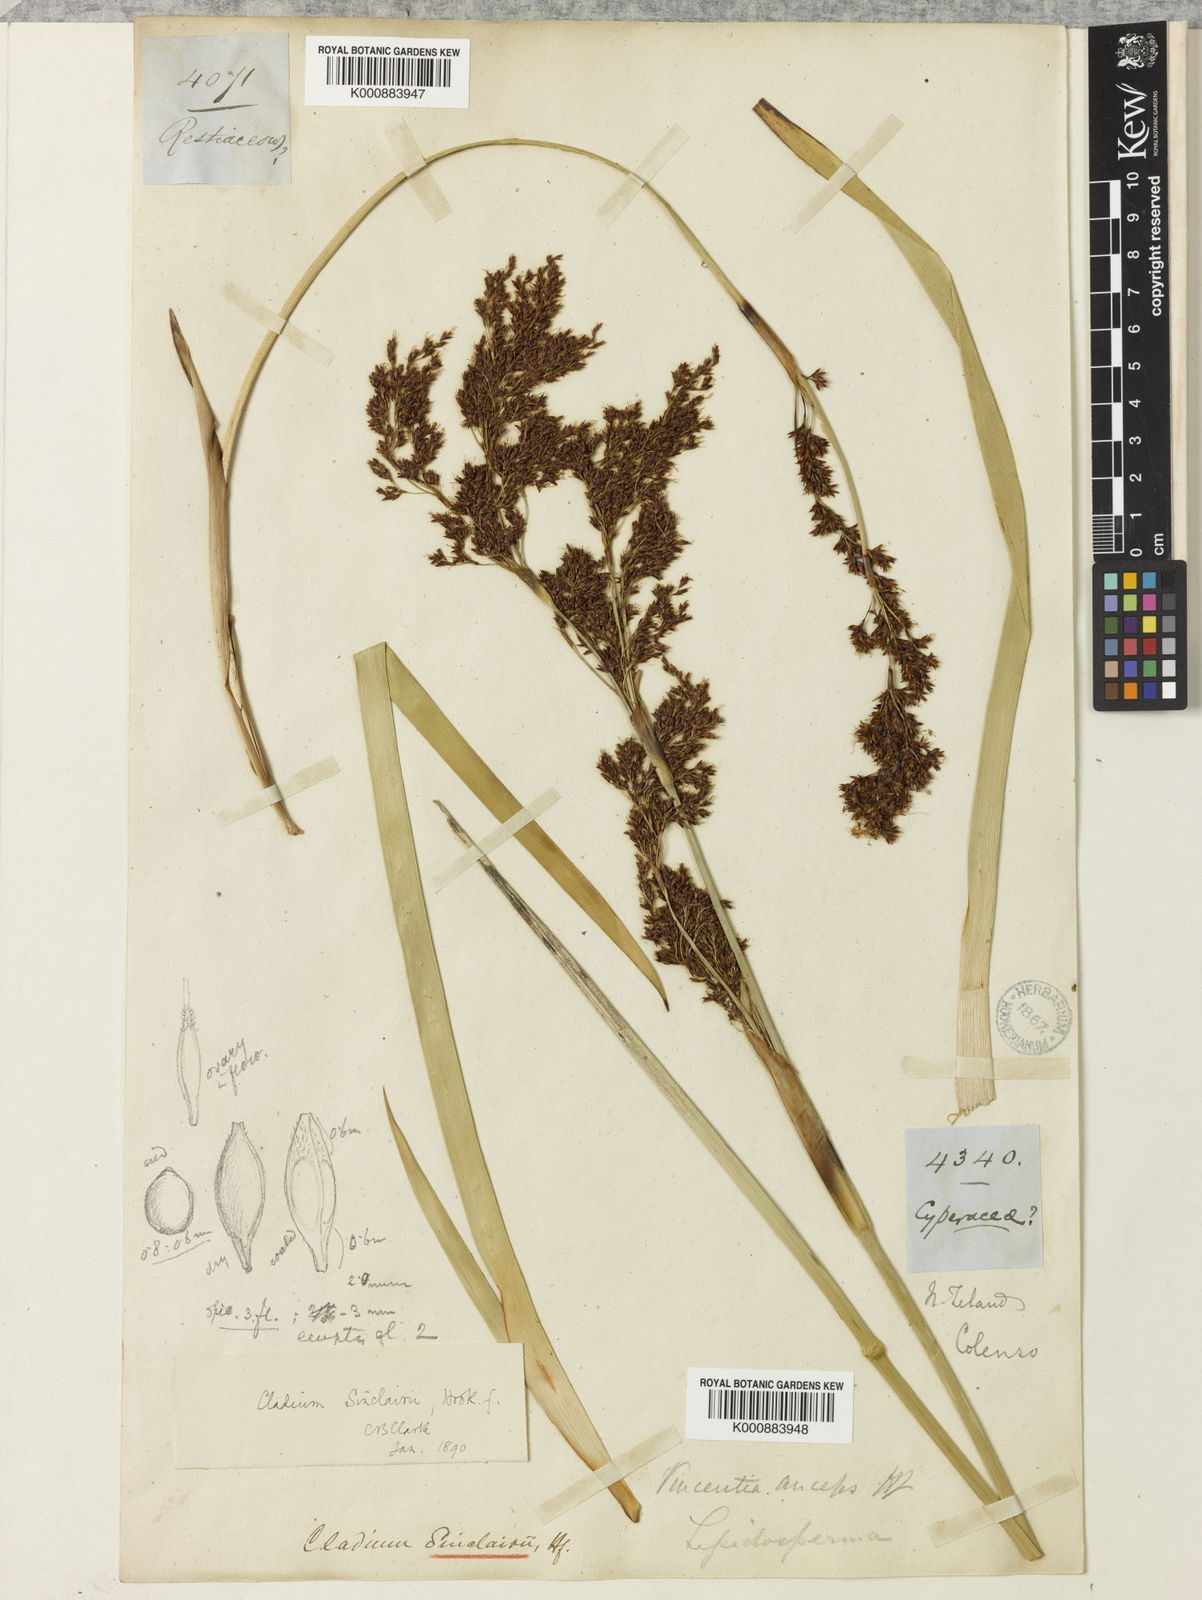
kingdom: Plantae
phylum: Tracheophyta
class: Liliopsida
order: Poales
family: Cyperaceae
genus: Machaerina
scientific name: Machaerina sinclairii
